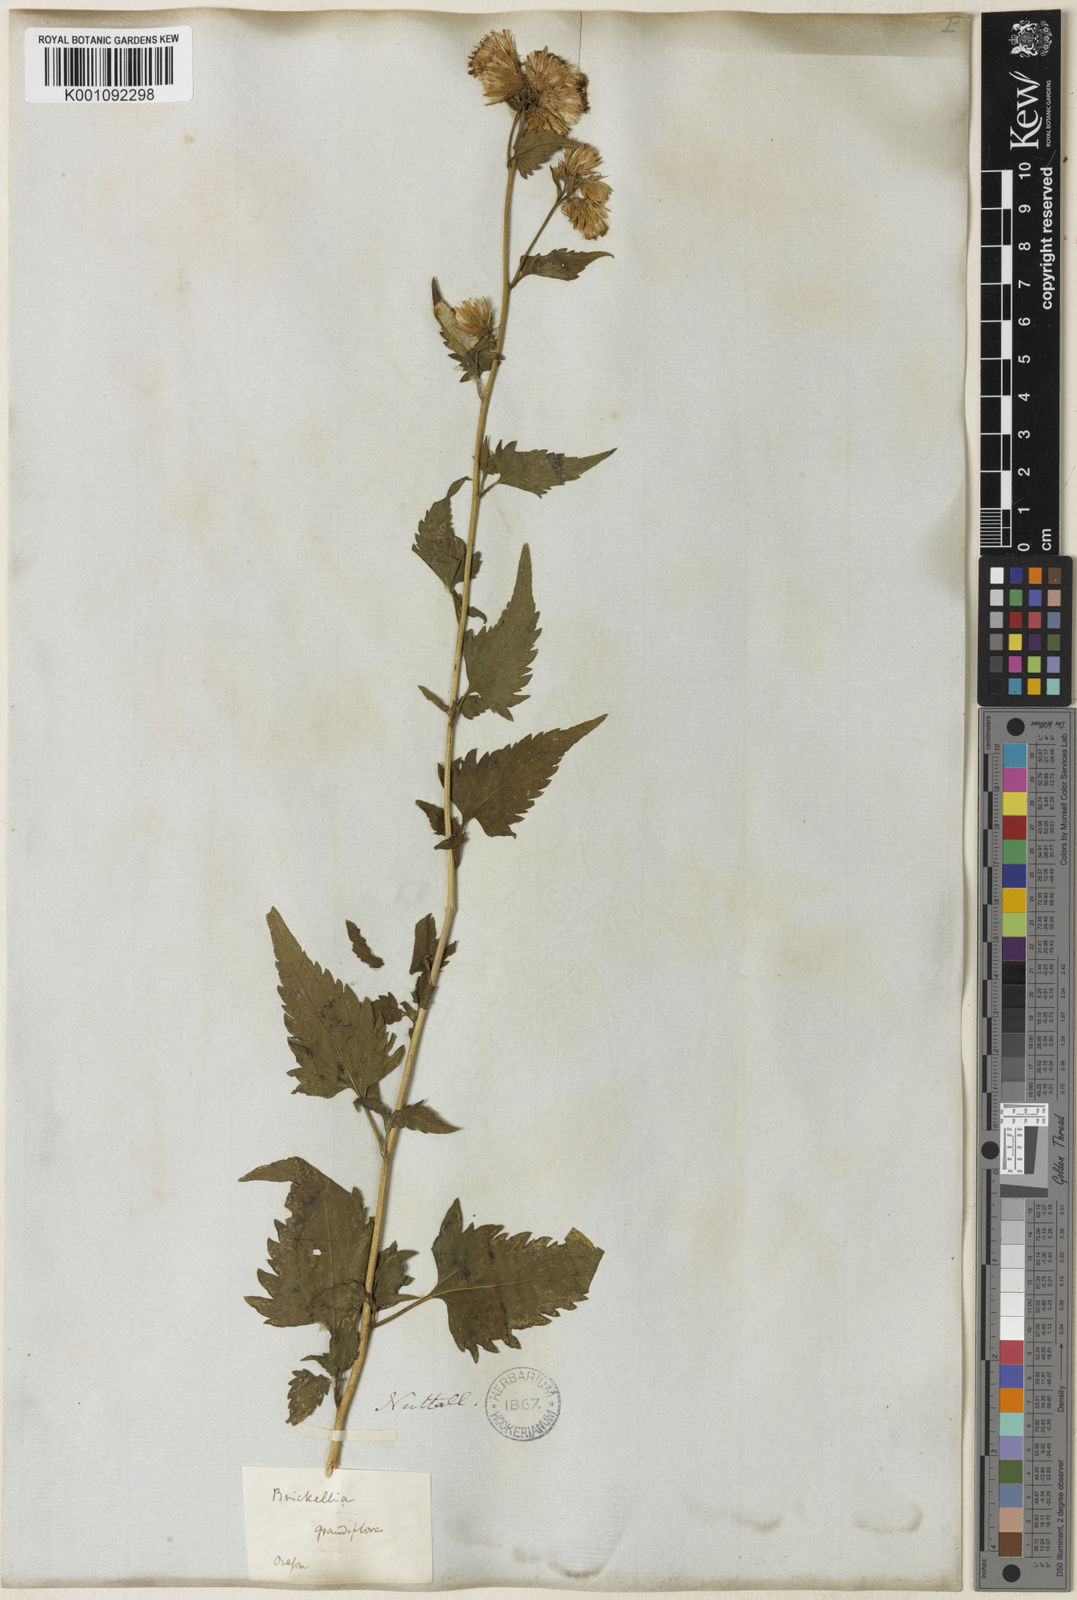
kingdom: Plantae
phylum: Tracheophyta
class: Magnoliopsida
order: Asterales
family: Asteraceae
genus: Brickellia
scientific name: Brickellia grandiflora
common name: Large-flowered brickellia
